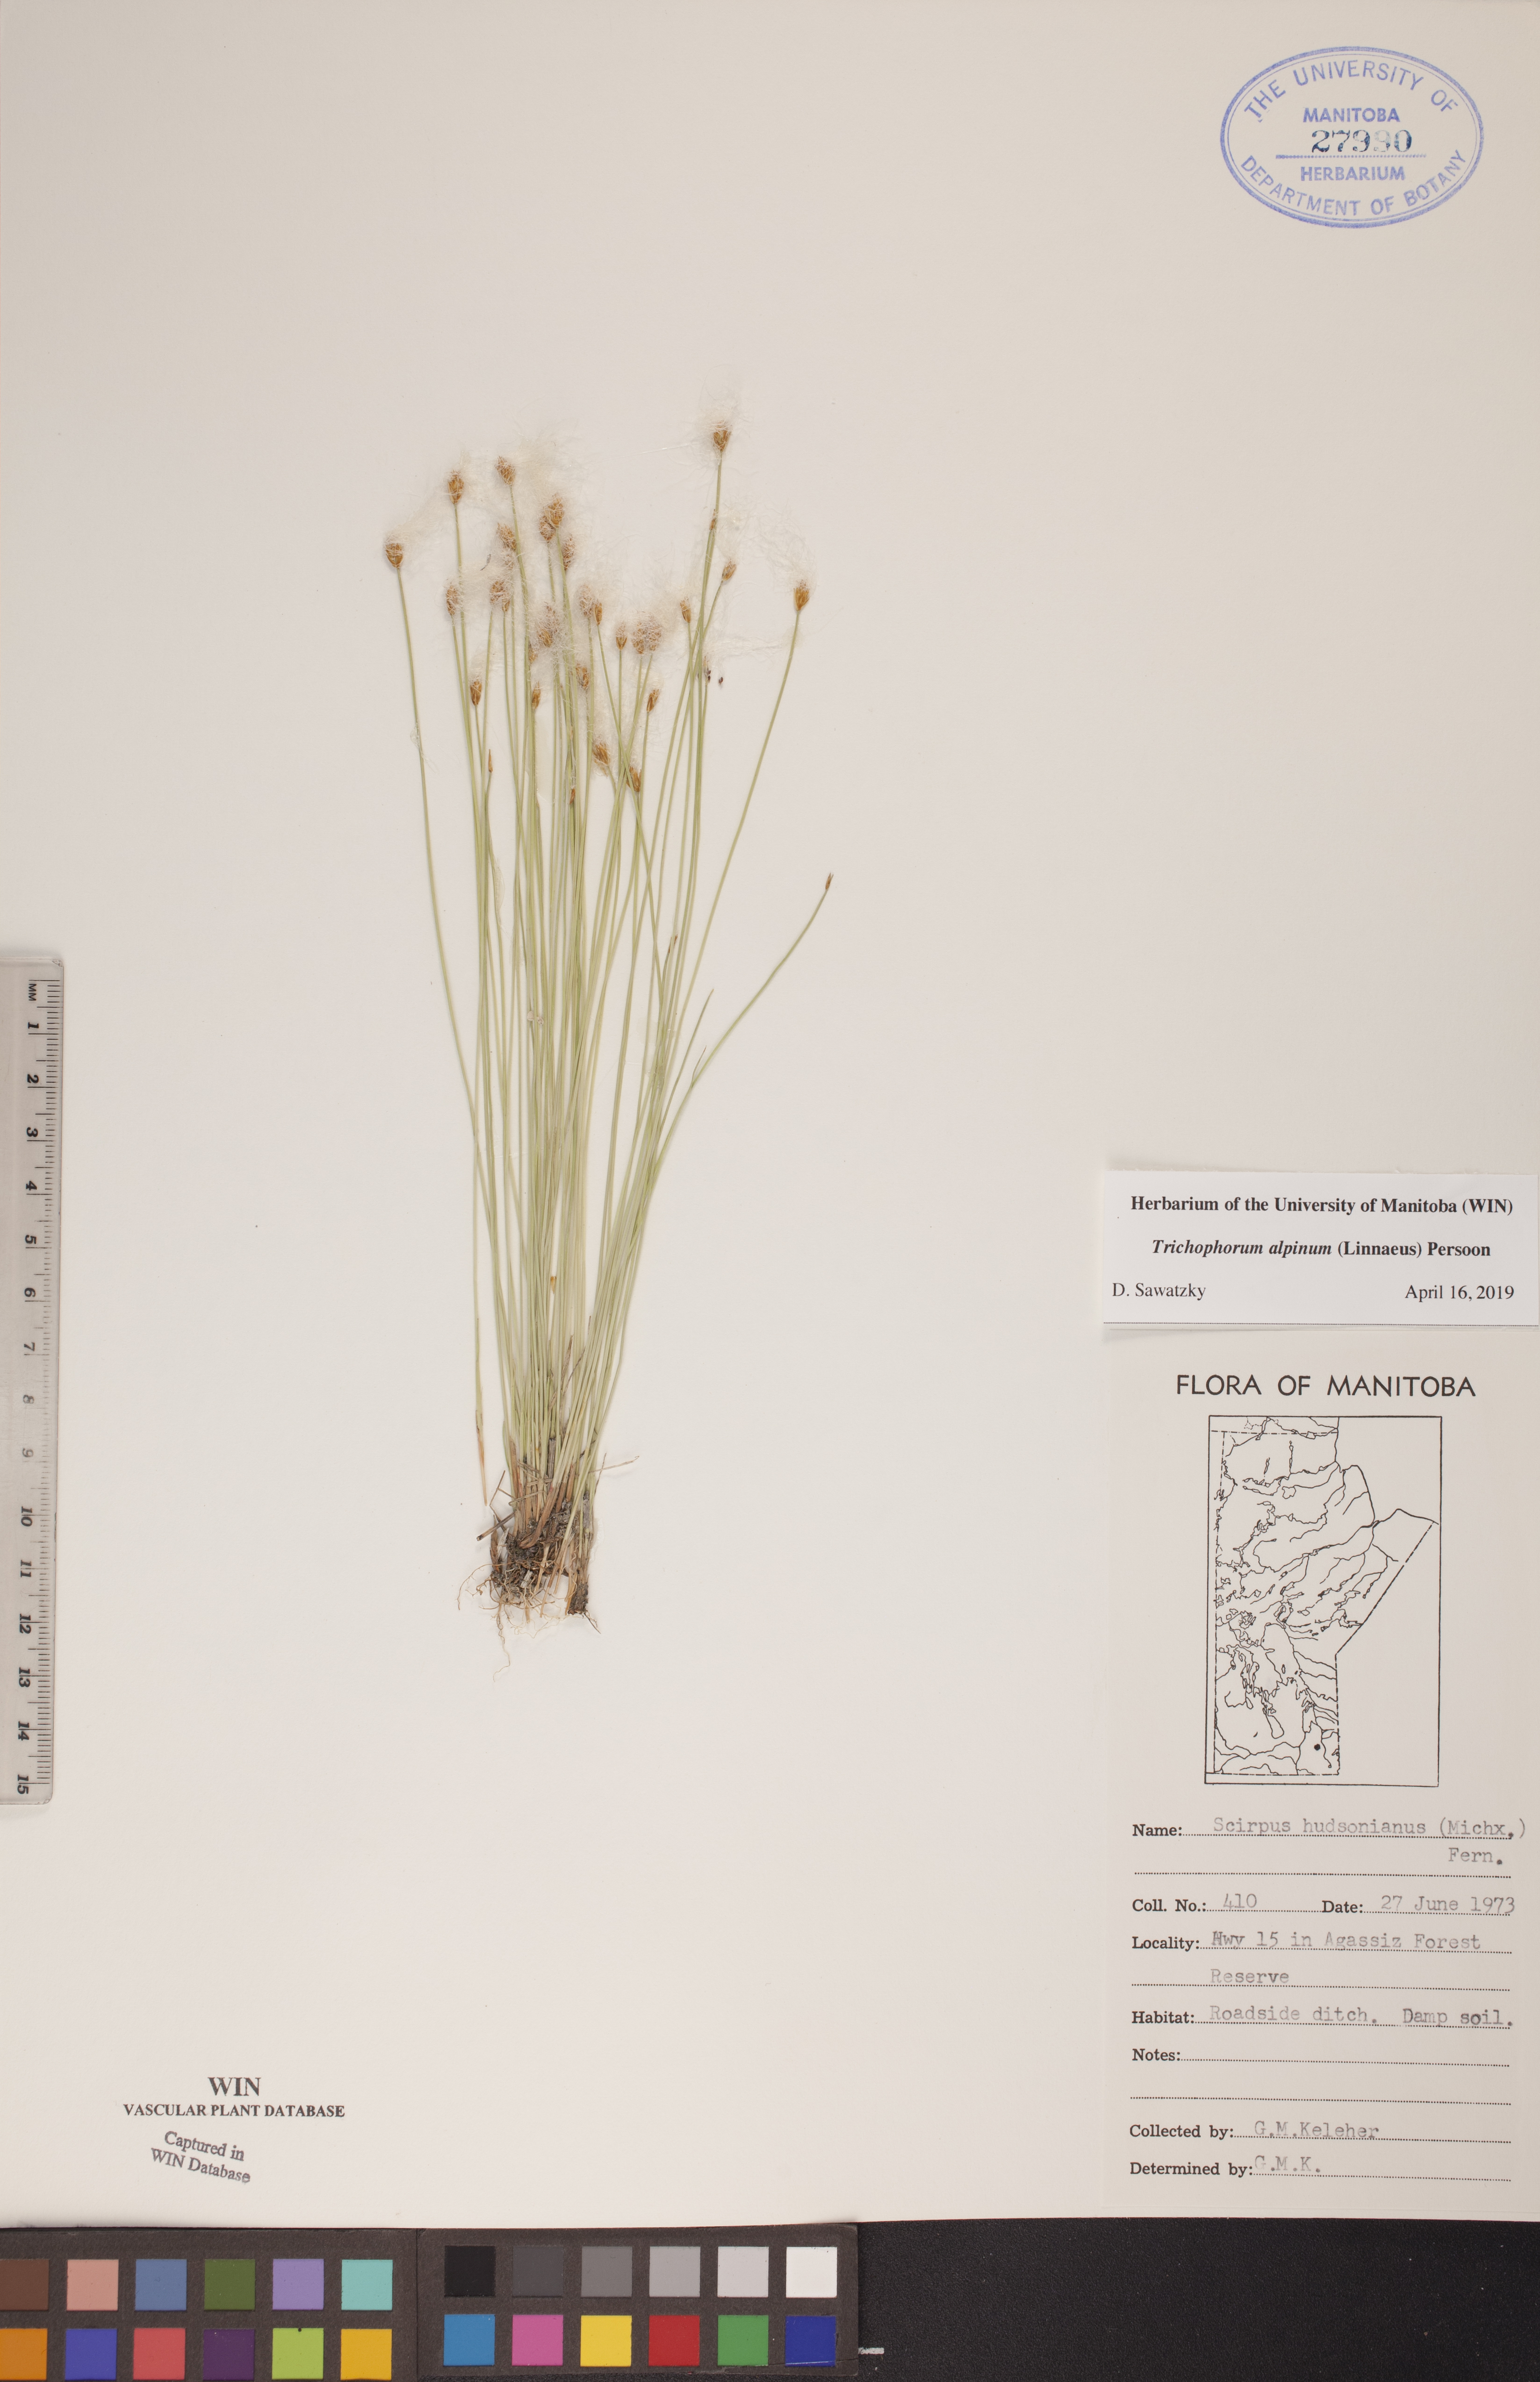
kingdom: Plantae
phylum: Tracheophyta
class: Liliopsida
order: Poales
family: Cyperaceae
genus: Trichophorum
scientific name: Trichophorum alpinum
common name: Alpine bulrush
